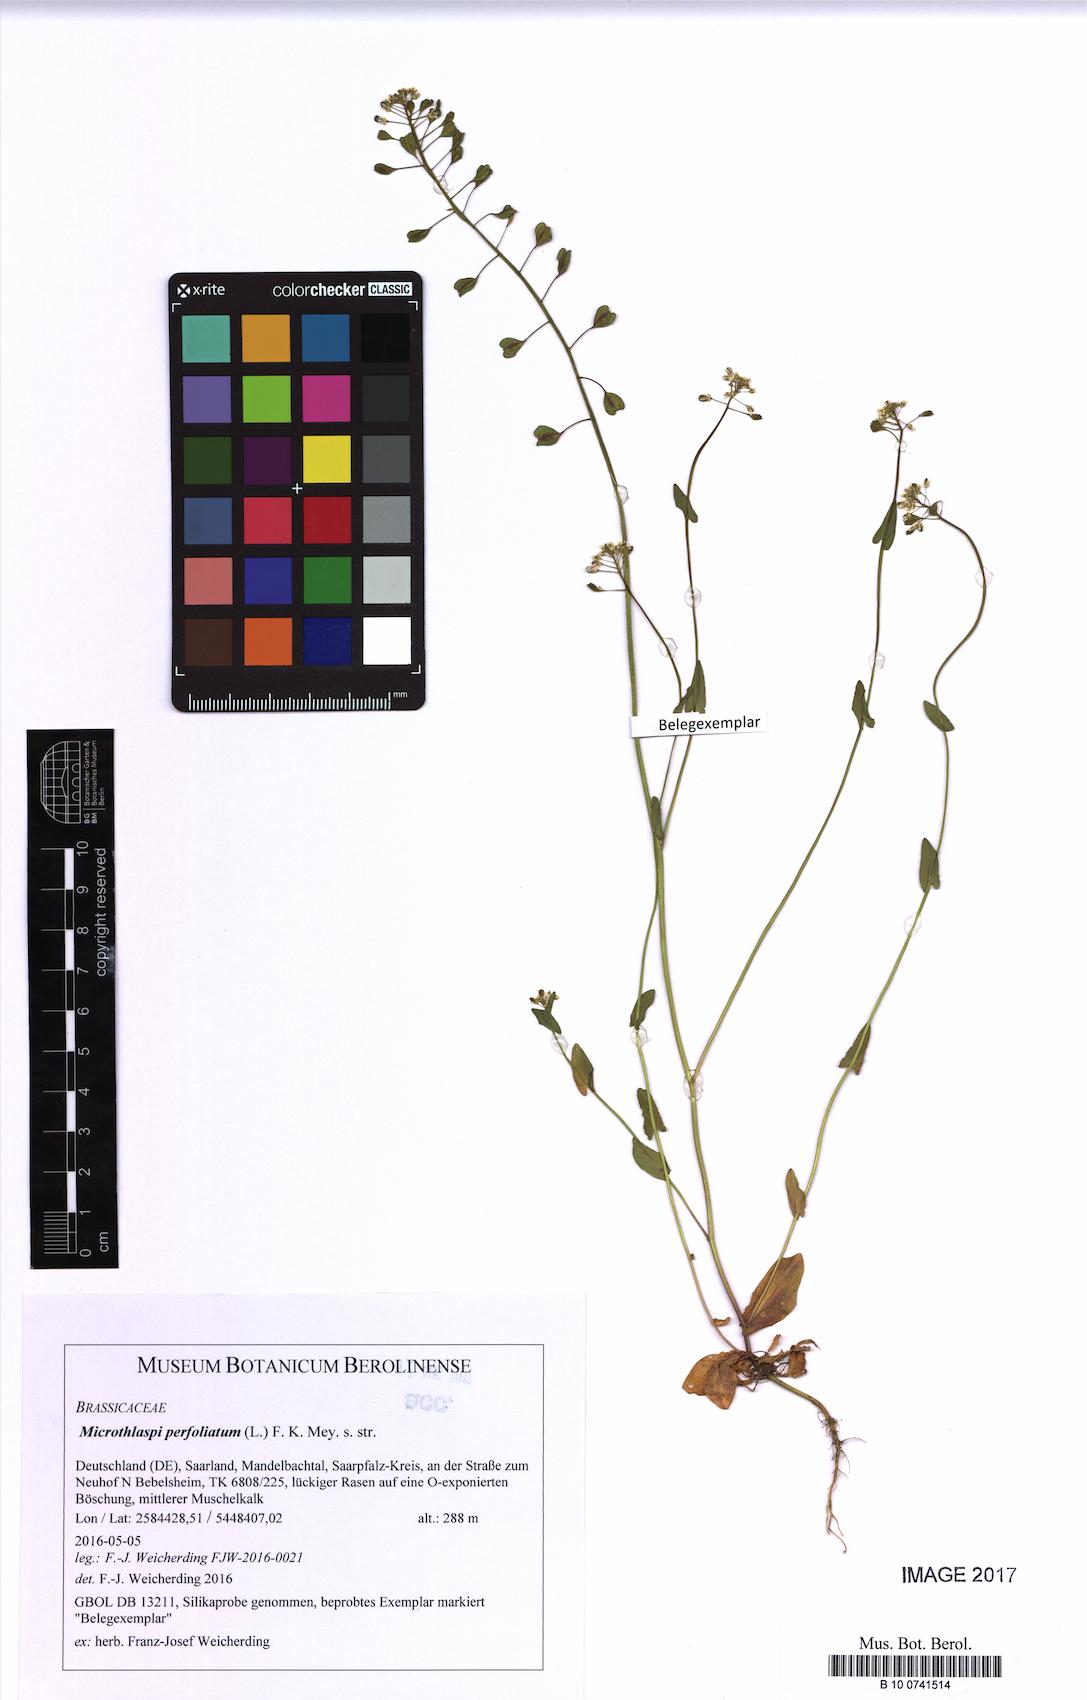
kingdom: Plantae
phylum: Tracheophyta
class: Magnoliopsida
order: Brassicales
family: Brassicaceae
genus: Noccaea
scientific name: Noccaea perfoliata
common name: Perfoliate pennycress
